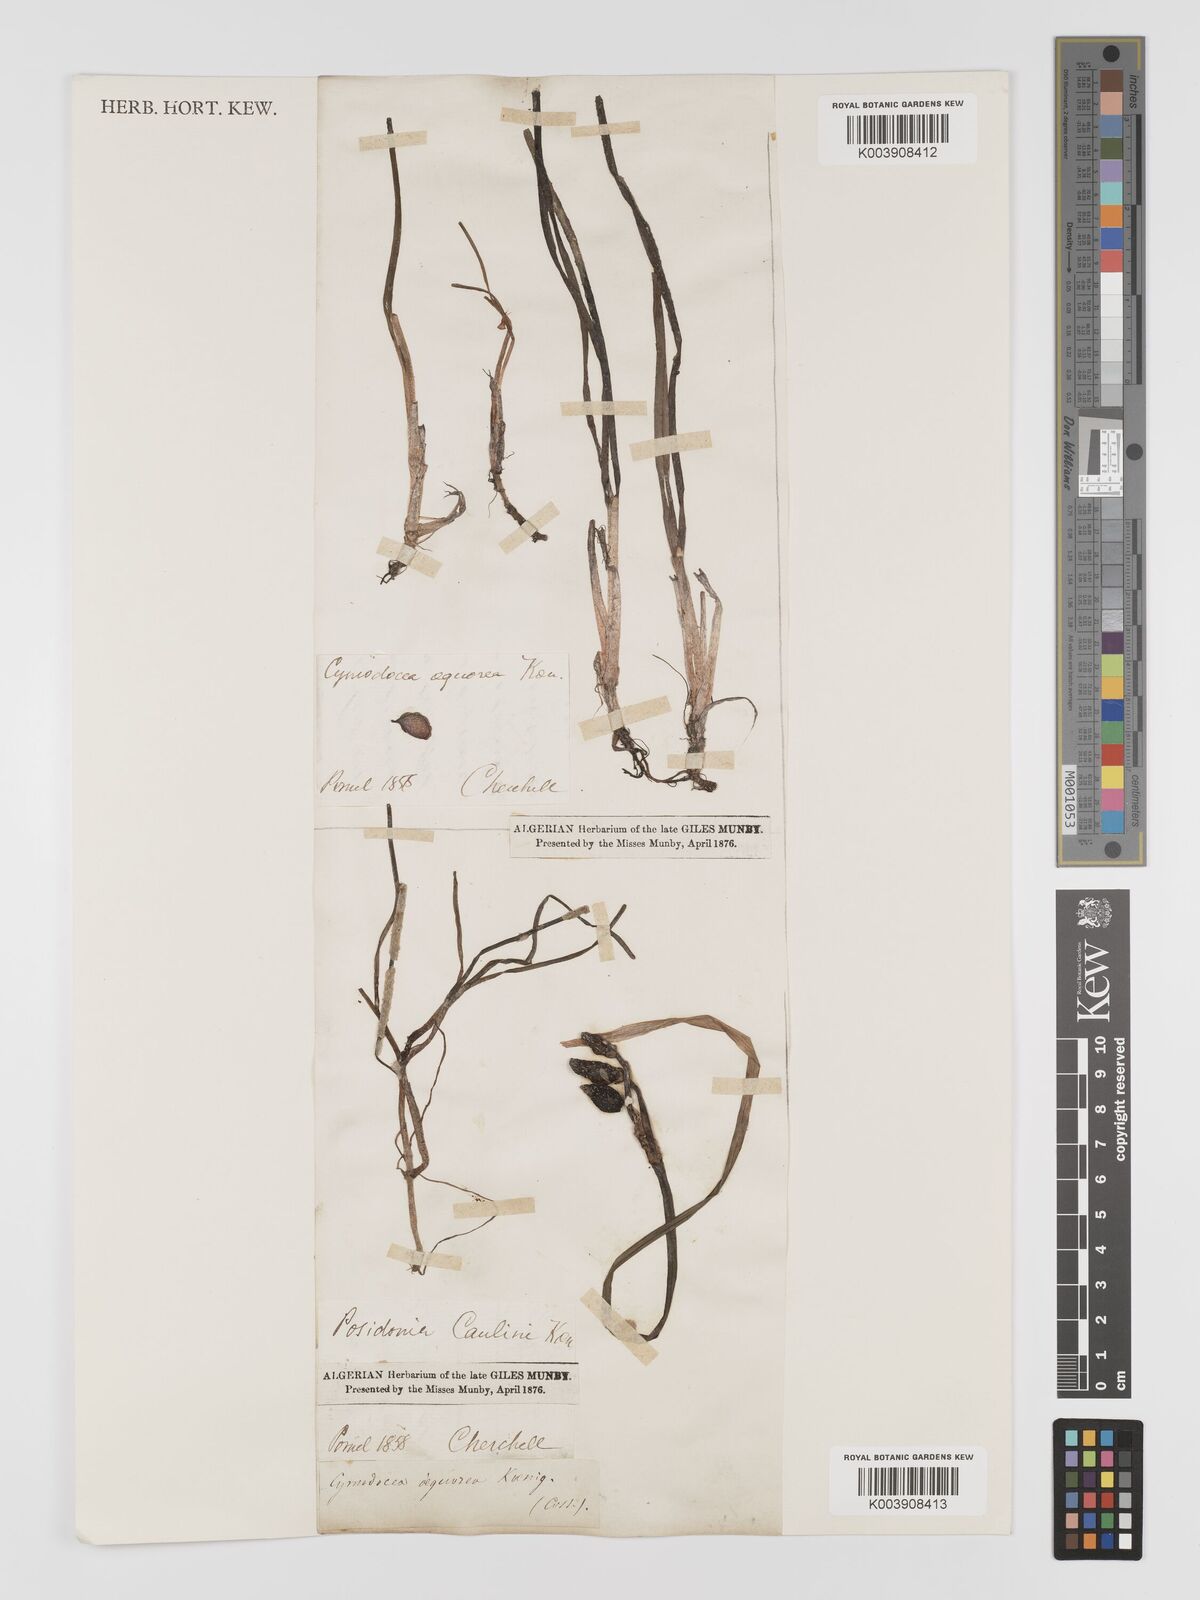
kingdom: Plantae
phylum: Tracheophyta
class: Liliopsida
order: Alismatales
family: Posidoniaceae
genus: Posidonia
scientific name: Posidonia
